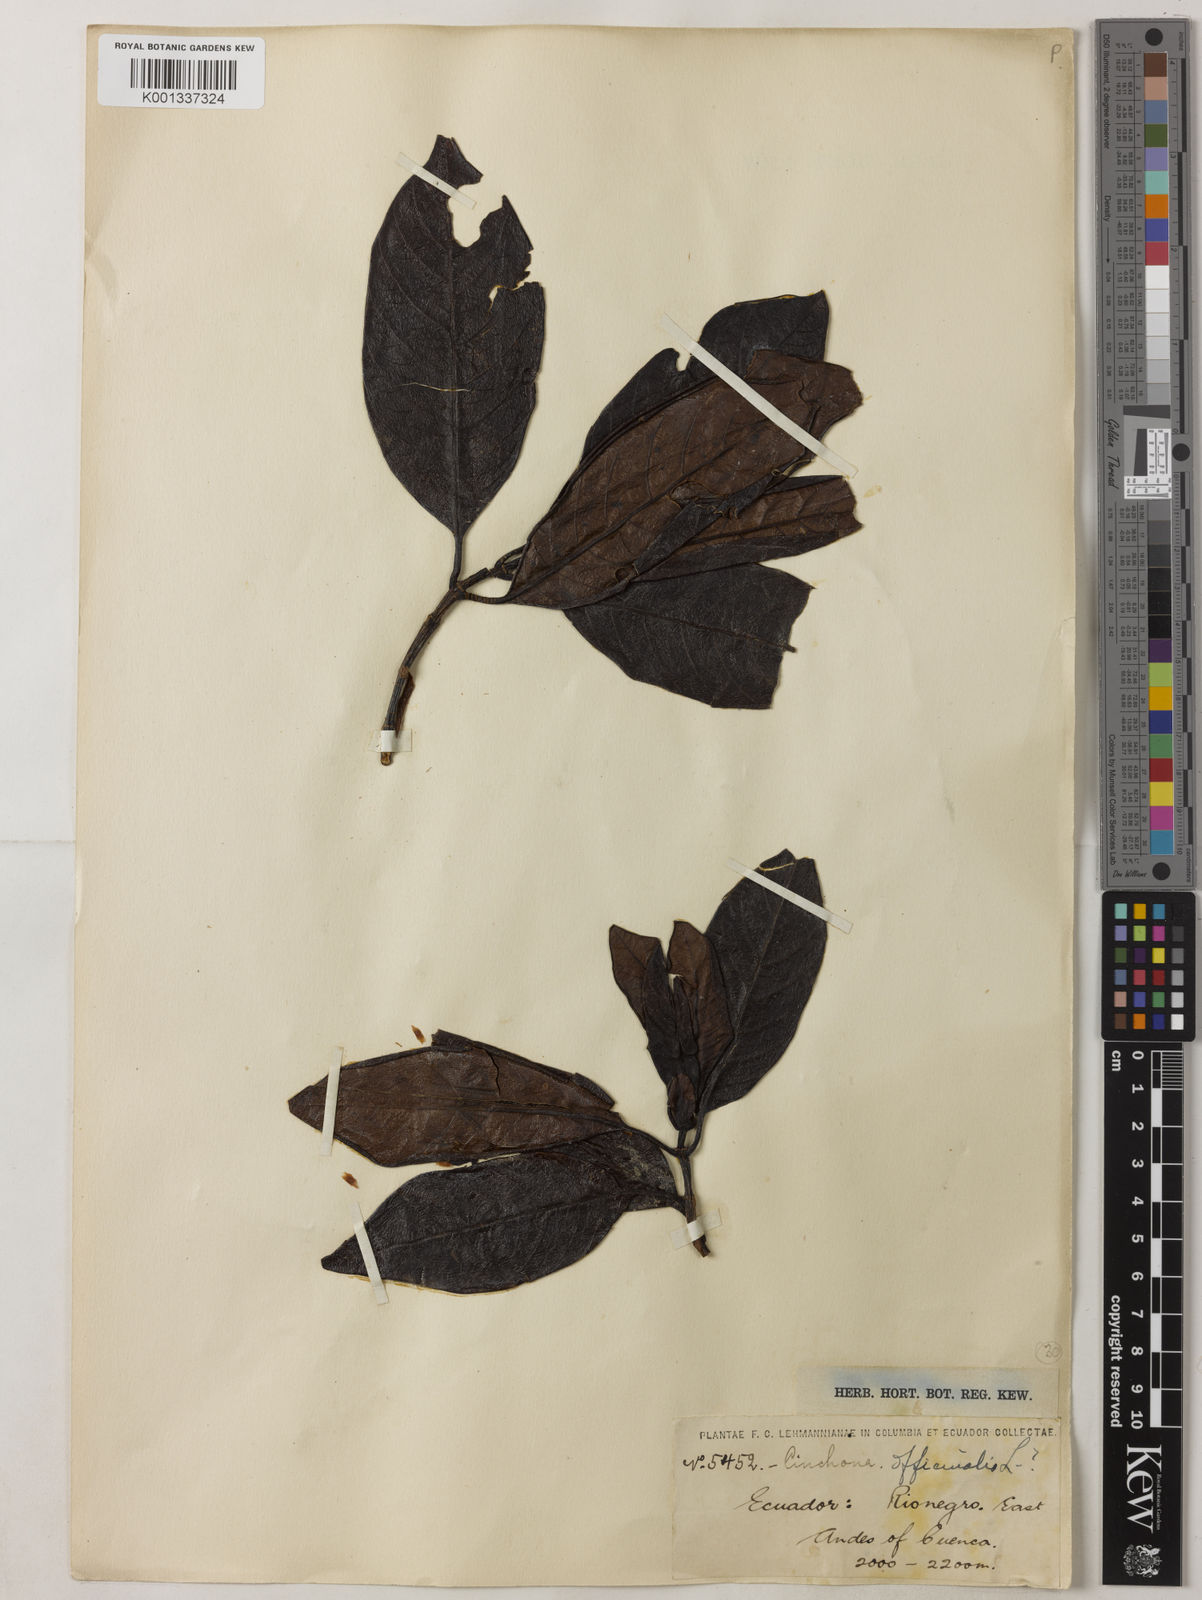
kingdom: Plantae
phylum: Tracheophyta
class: Magnoliopsida
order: Gentianales
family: Rubiaceae
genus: Cinchona
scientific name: Cinchona officinalis
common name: Lojabark
